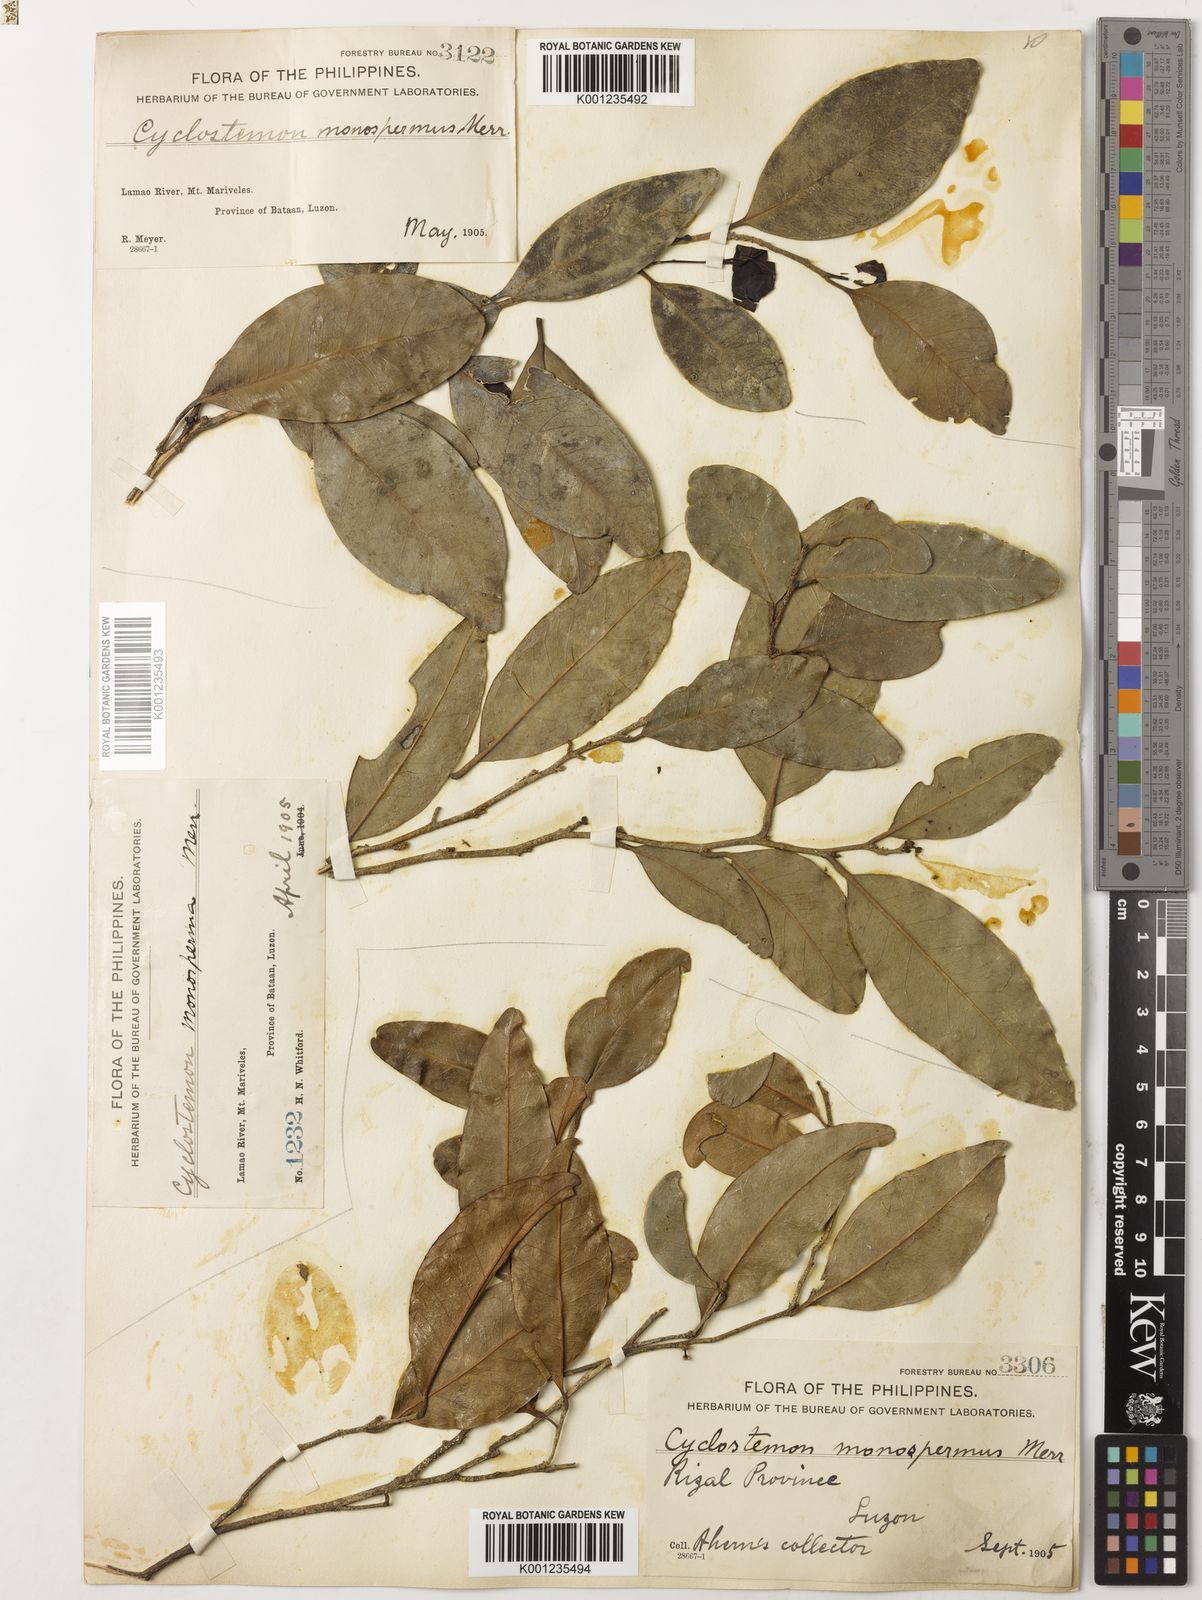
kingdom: Plantae
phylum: Tracheophyta
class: Magnoliopsida
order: Malpighiales
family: Putranjivaceae
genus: Drypetes
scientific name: Drypetes monosperma
